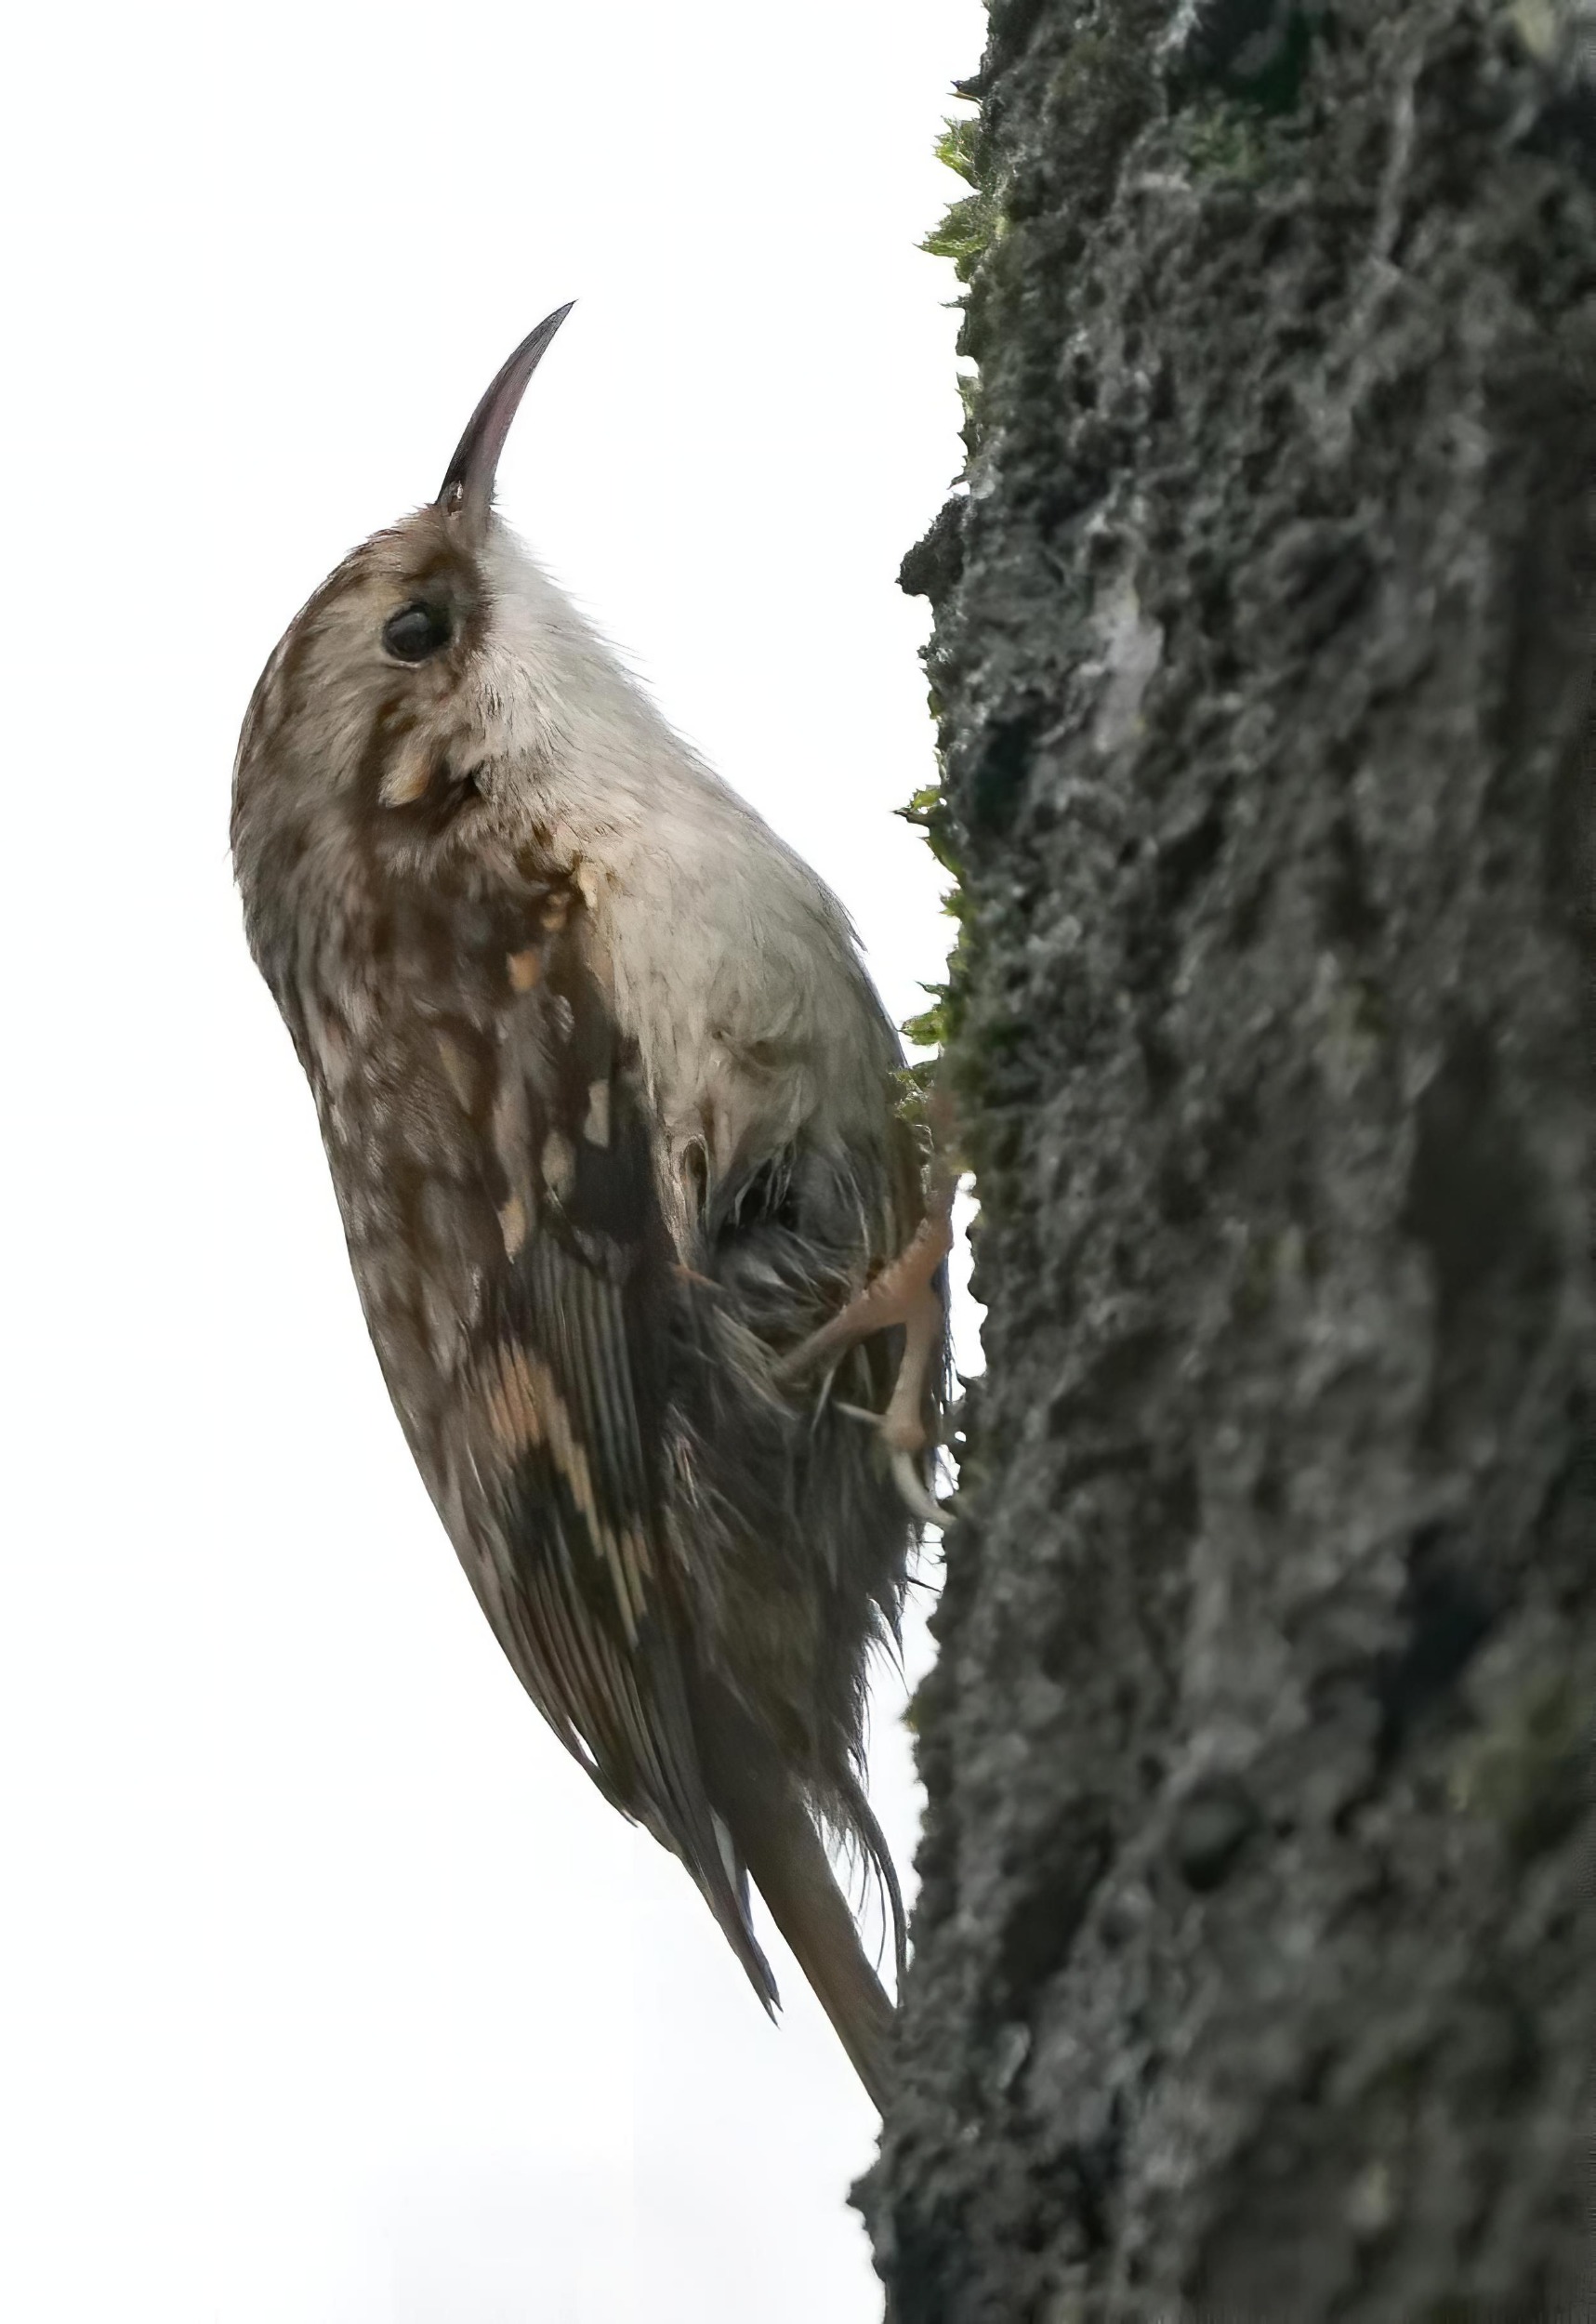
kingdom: Animalia
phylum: Chordata
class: Aves
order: Passeriformes
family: Certhiidae
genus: Certhia
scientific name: Certhia familiaris
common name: Træløber
